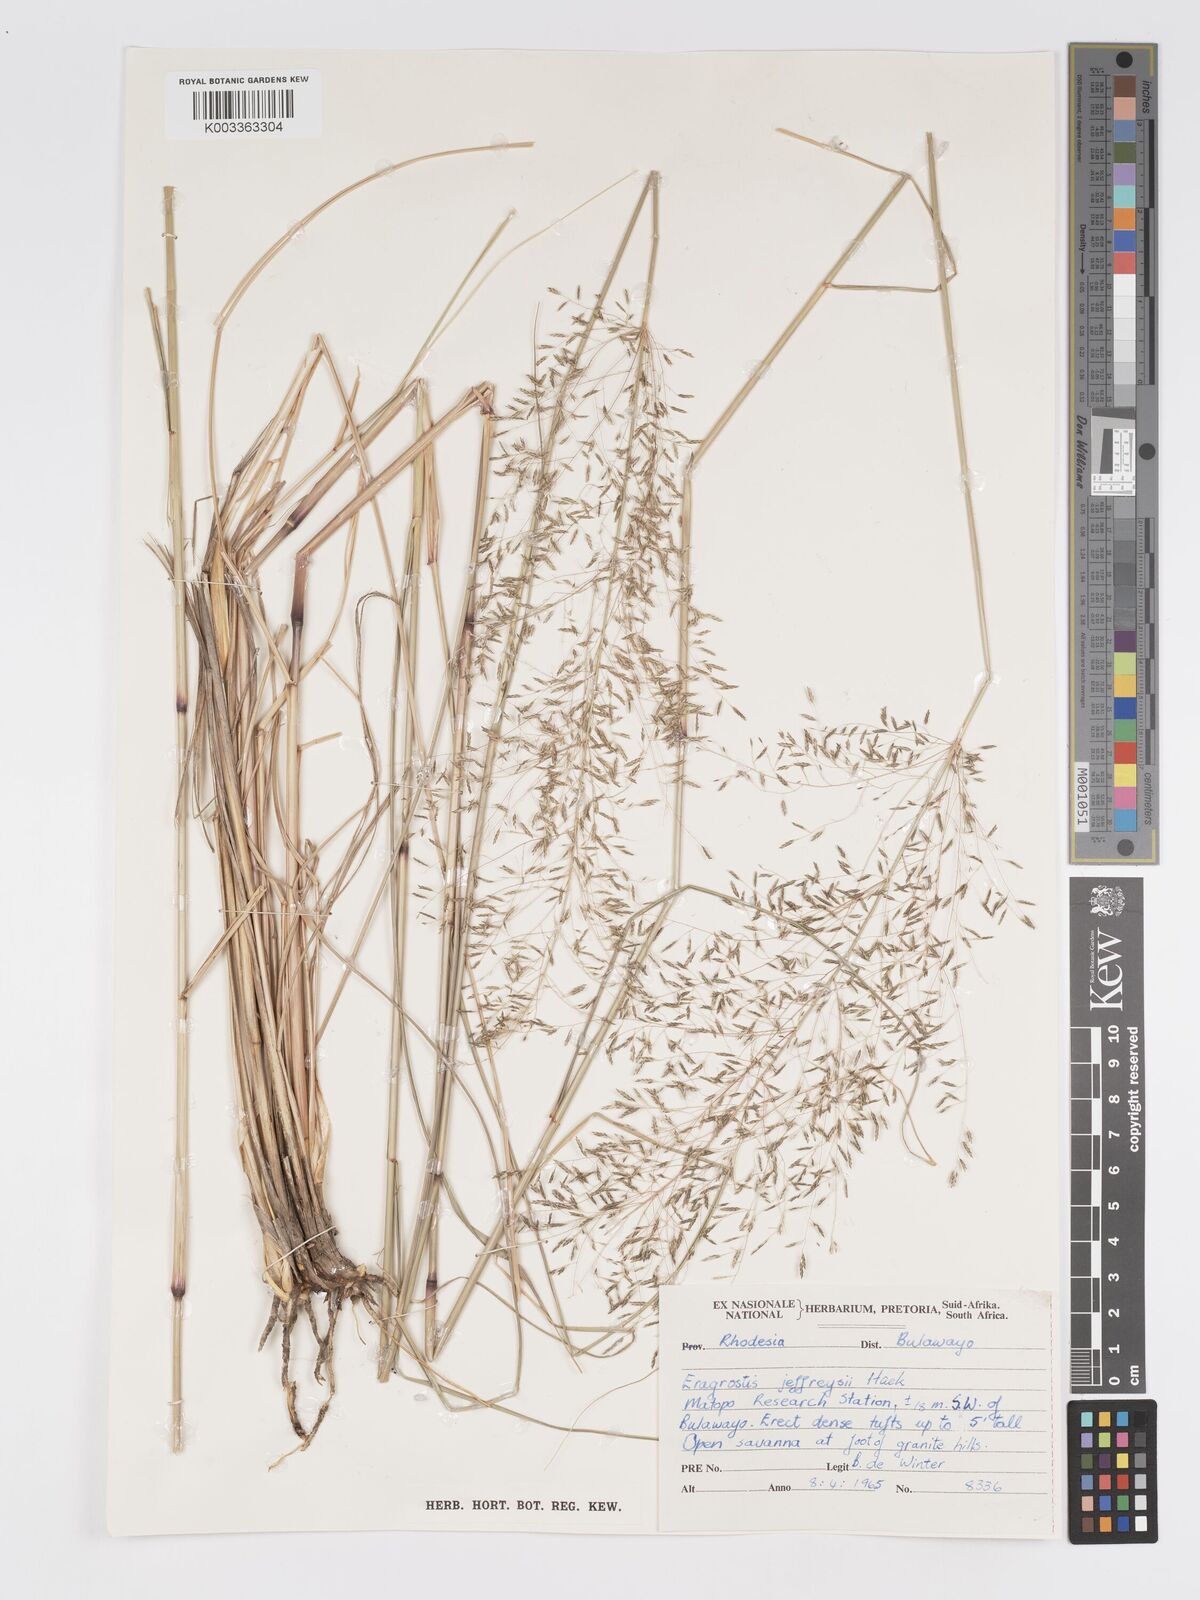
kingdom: Plantae
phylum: Tracheophyta
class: Liliopsida
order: Poales
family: Poaceae
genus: Eragrostis
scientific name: Eragrostis curvula
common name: African love-grass
